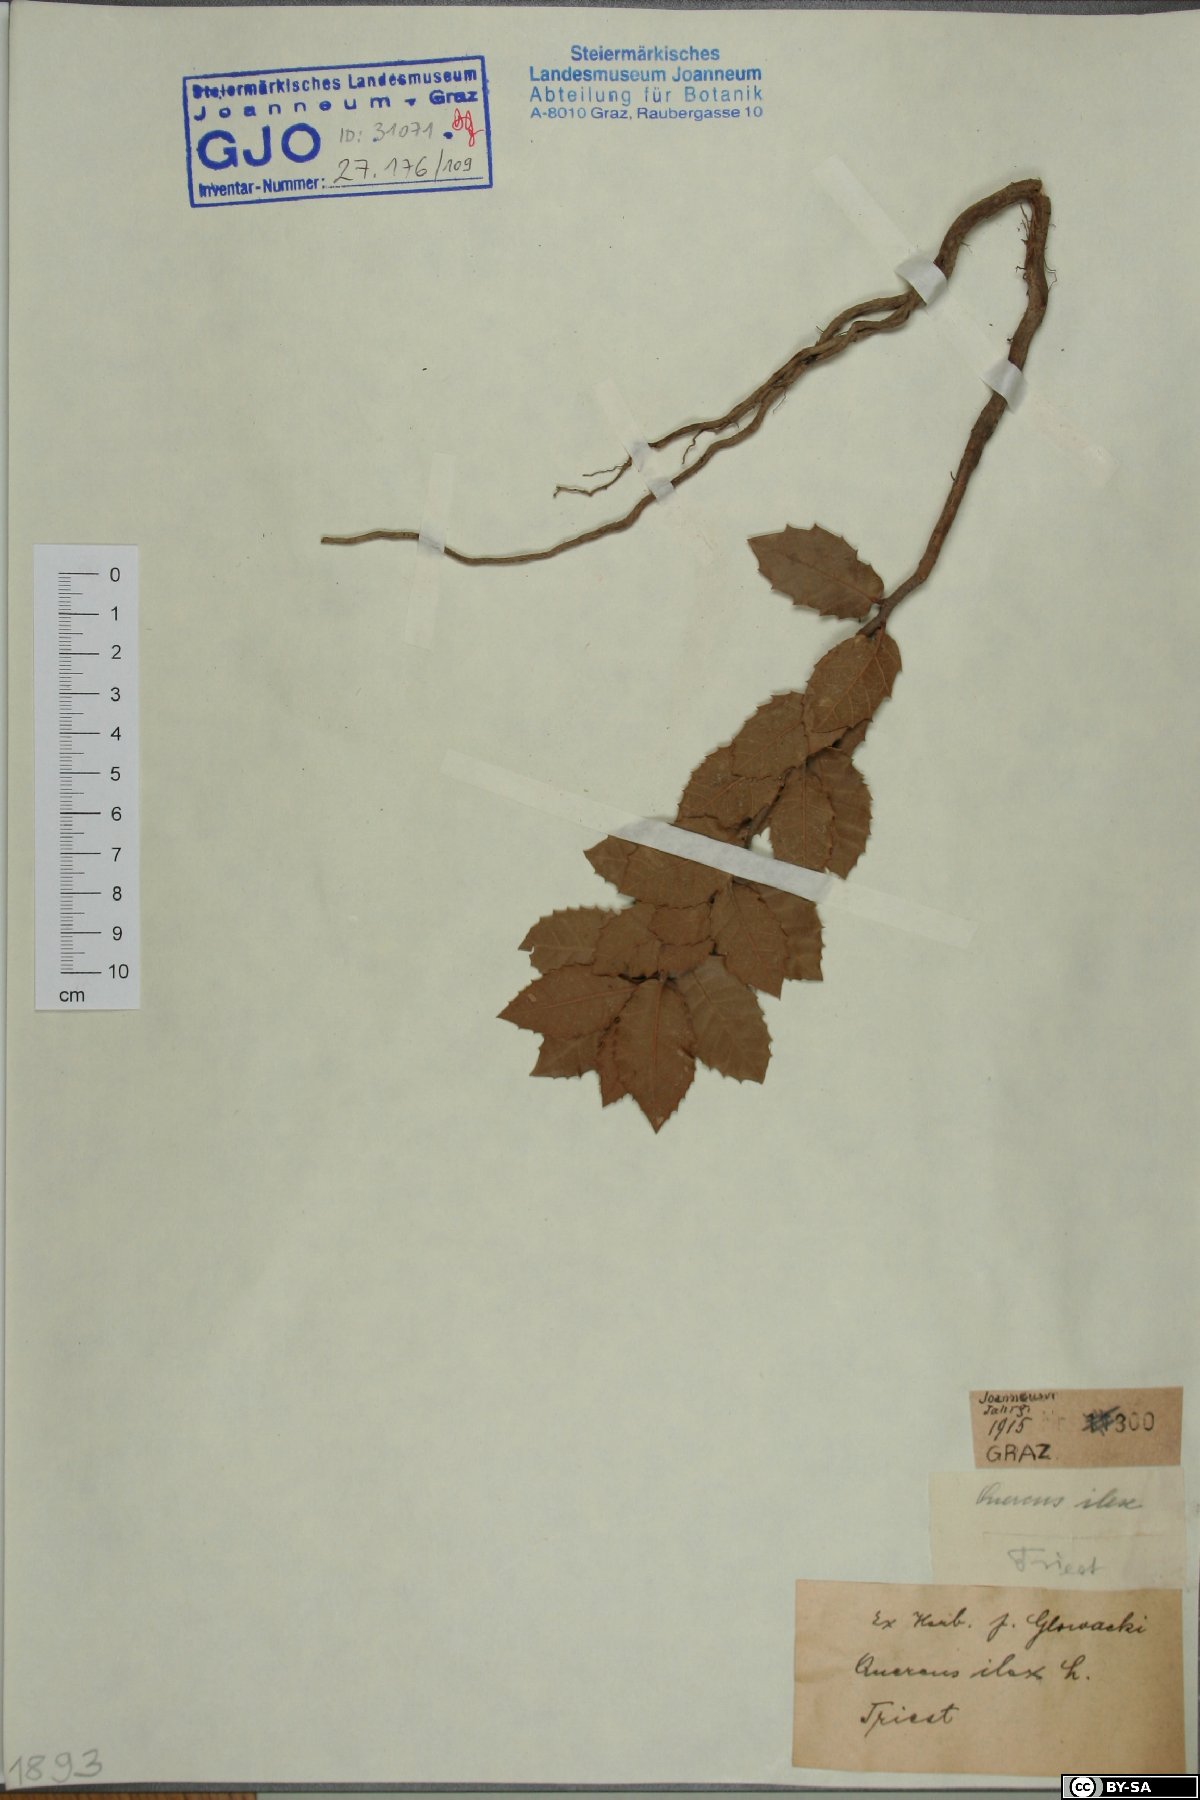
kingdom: Plantae
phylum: Tracheophyta
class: Magnoliopsida
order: Fagales
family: Fagaceae
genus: Quercus
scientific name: Quercus ilex
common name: Evergreen oak
